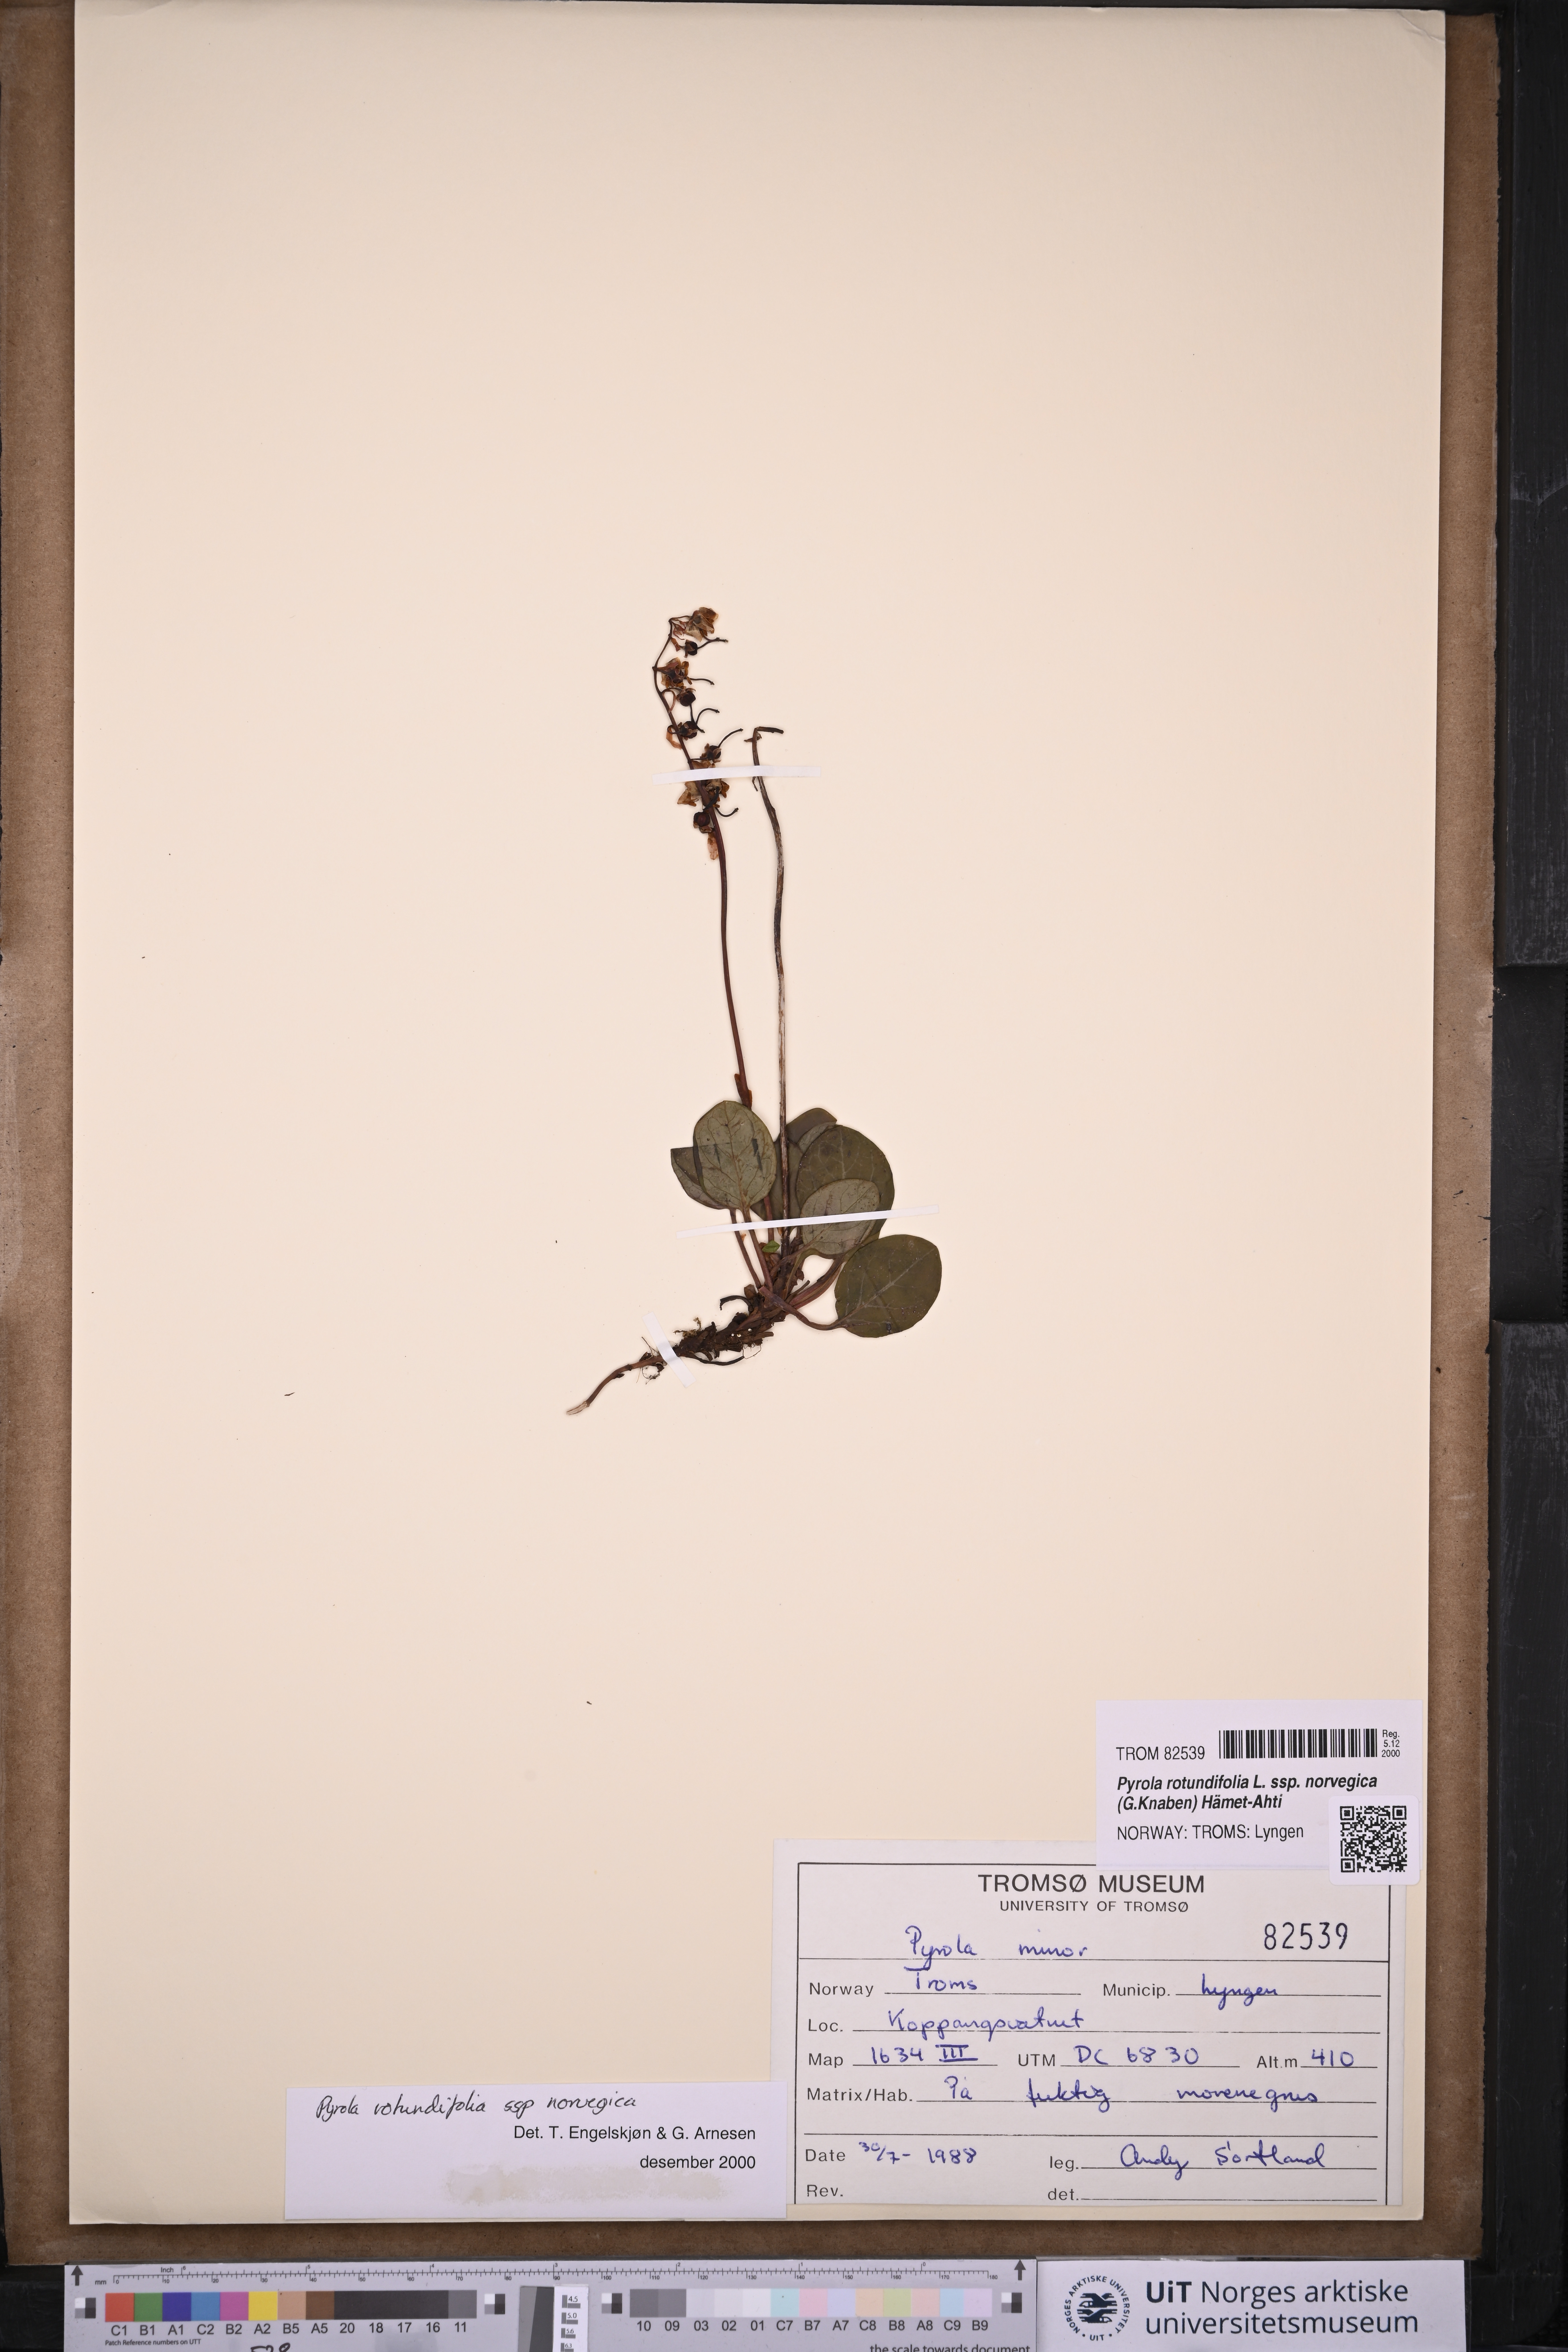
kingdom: Plantae
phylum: Tracheophyta
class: Magnoliopsida
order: Ericales
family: Ericaceae
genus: Pyrola
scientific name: Pyrola rotundifolia
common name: Round-leaved wintergreen
